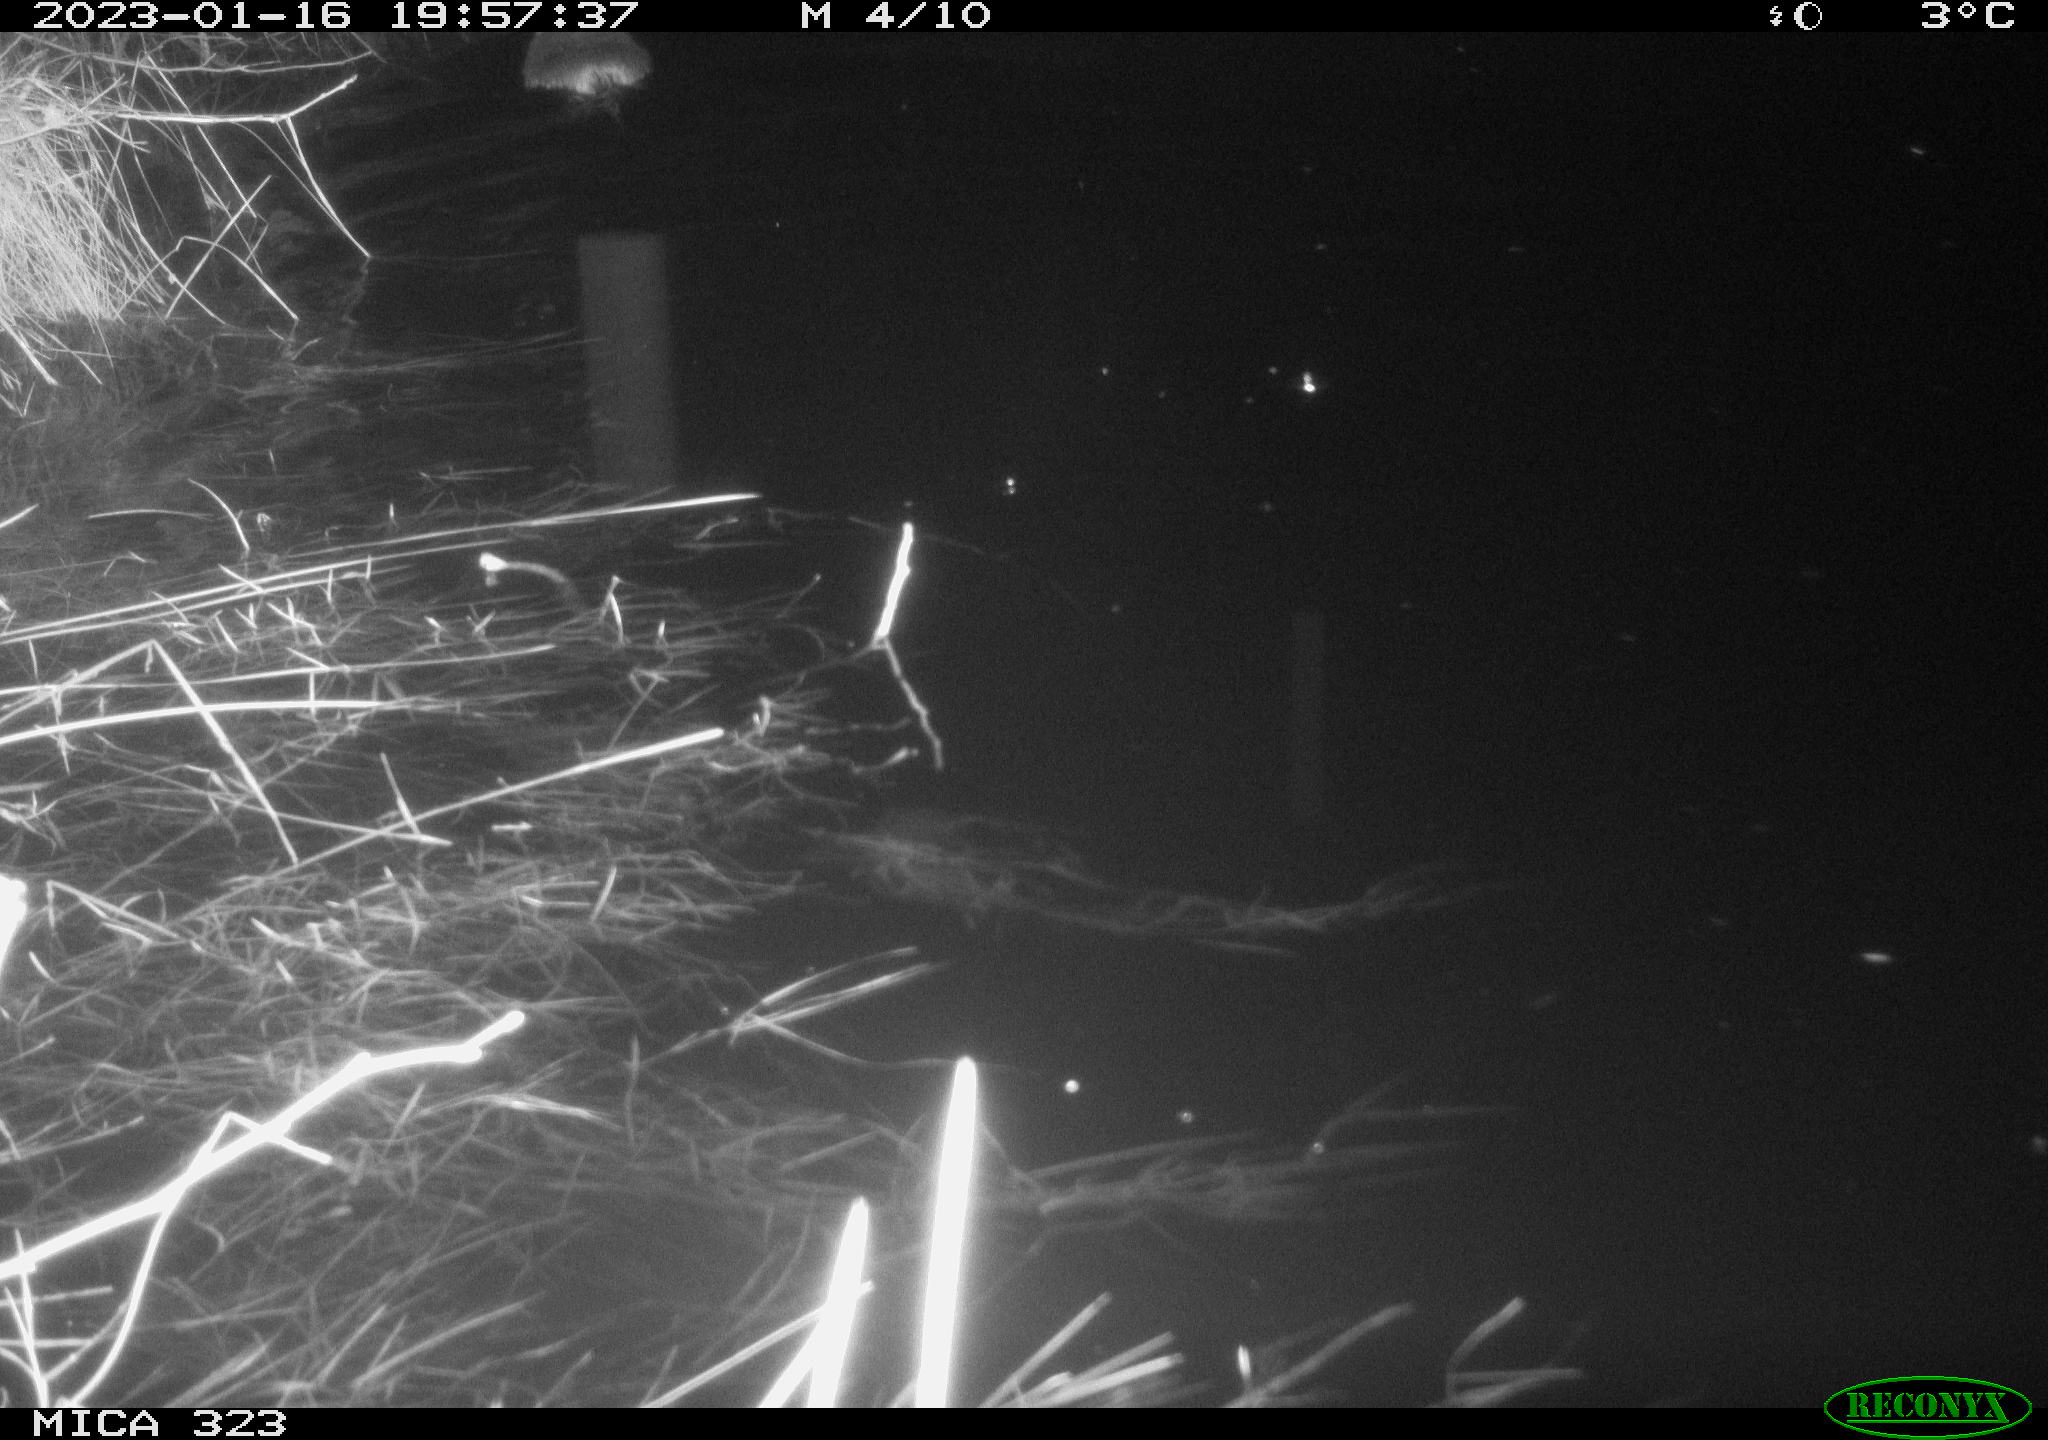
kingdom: Animalia
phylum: Chordata
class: Mammalia
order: Rodentia
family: Cricetidae
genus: Ondatra
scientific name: Ondatra zibethicus
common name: Muskrat
